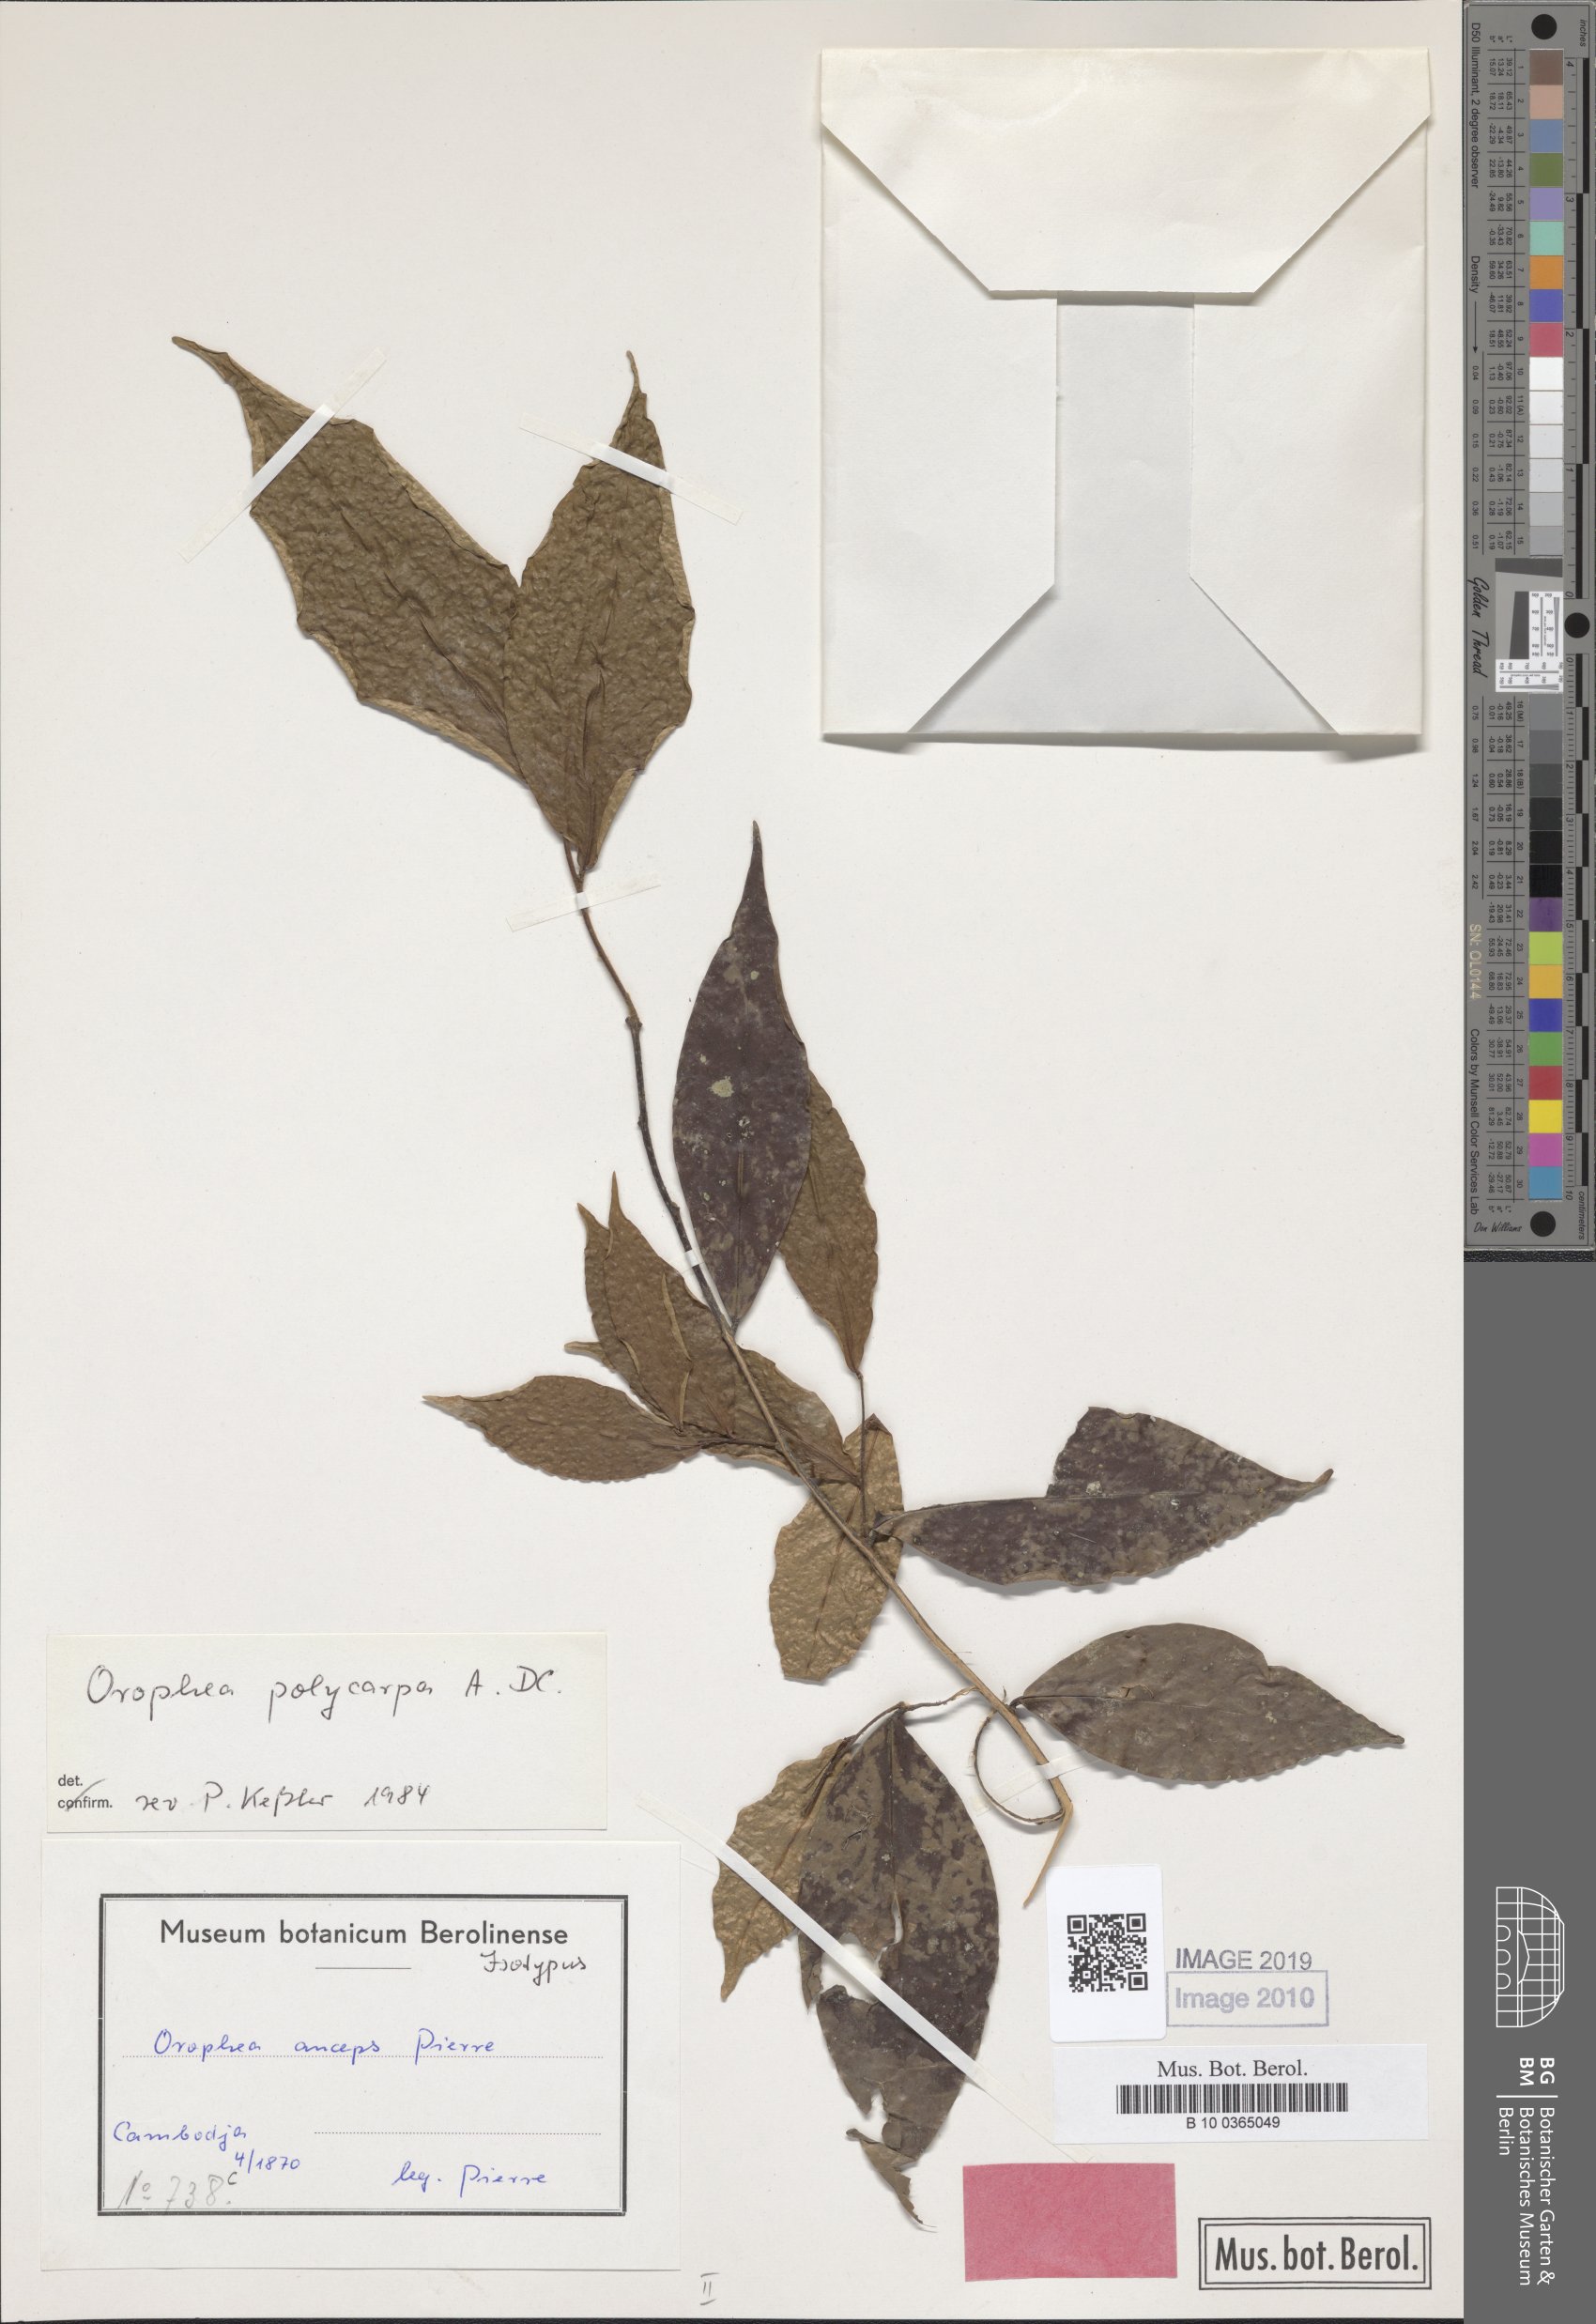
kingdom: Plantae
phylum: Tracheophyta
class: Magnoliopsida
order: Magnoliales
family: Annonaceae
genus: Orophea
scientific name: Orophea polycarpa
